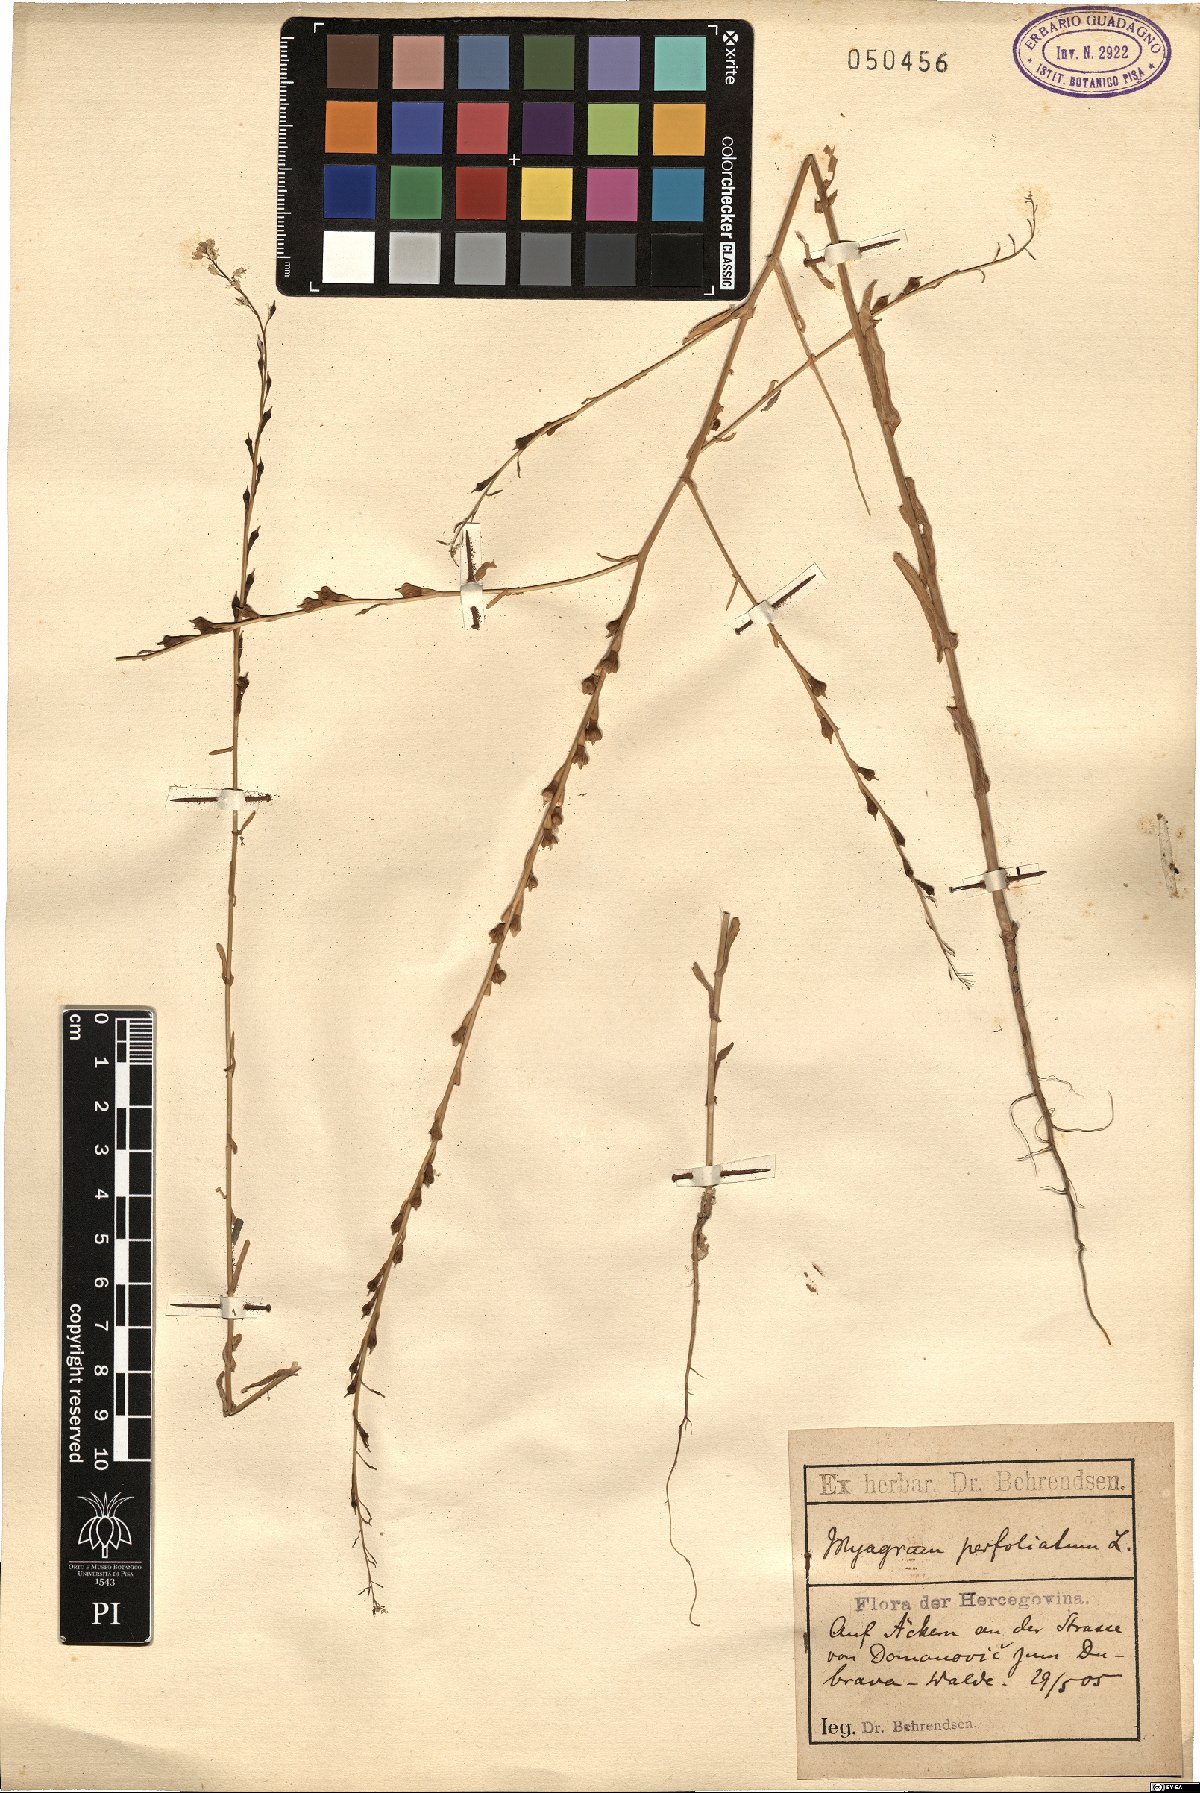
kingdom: Plantae
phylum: Tracheophyta
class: Magnoliopsida
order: Brassicales
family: Brassicaceae
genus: Myagrum
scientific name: Myagrum perfoliatum
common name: Mitre cress
